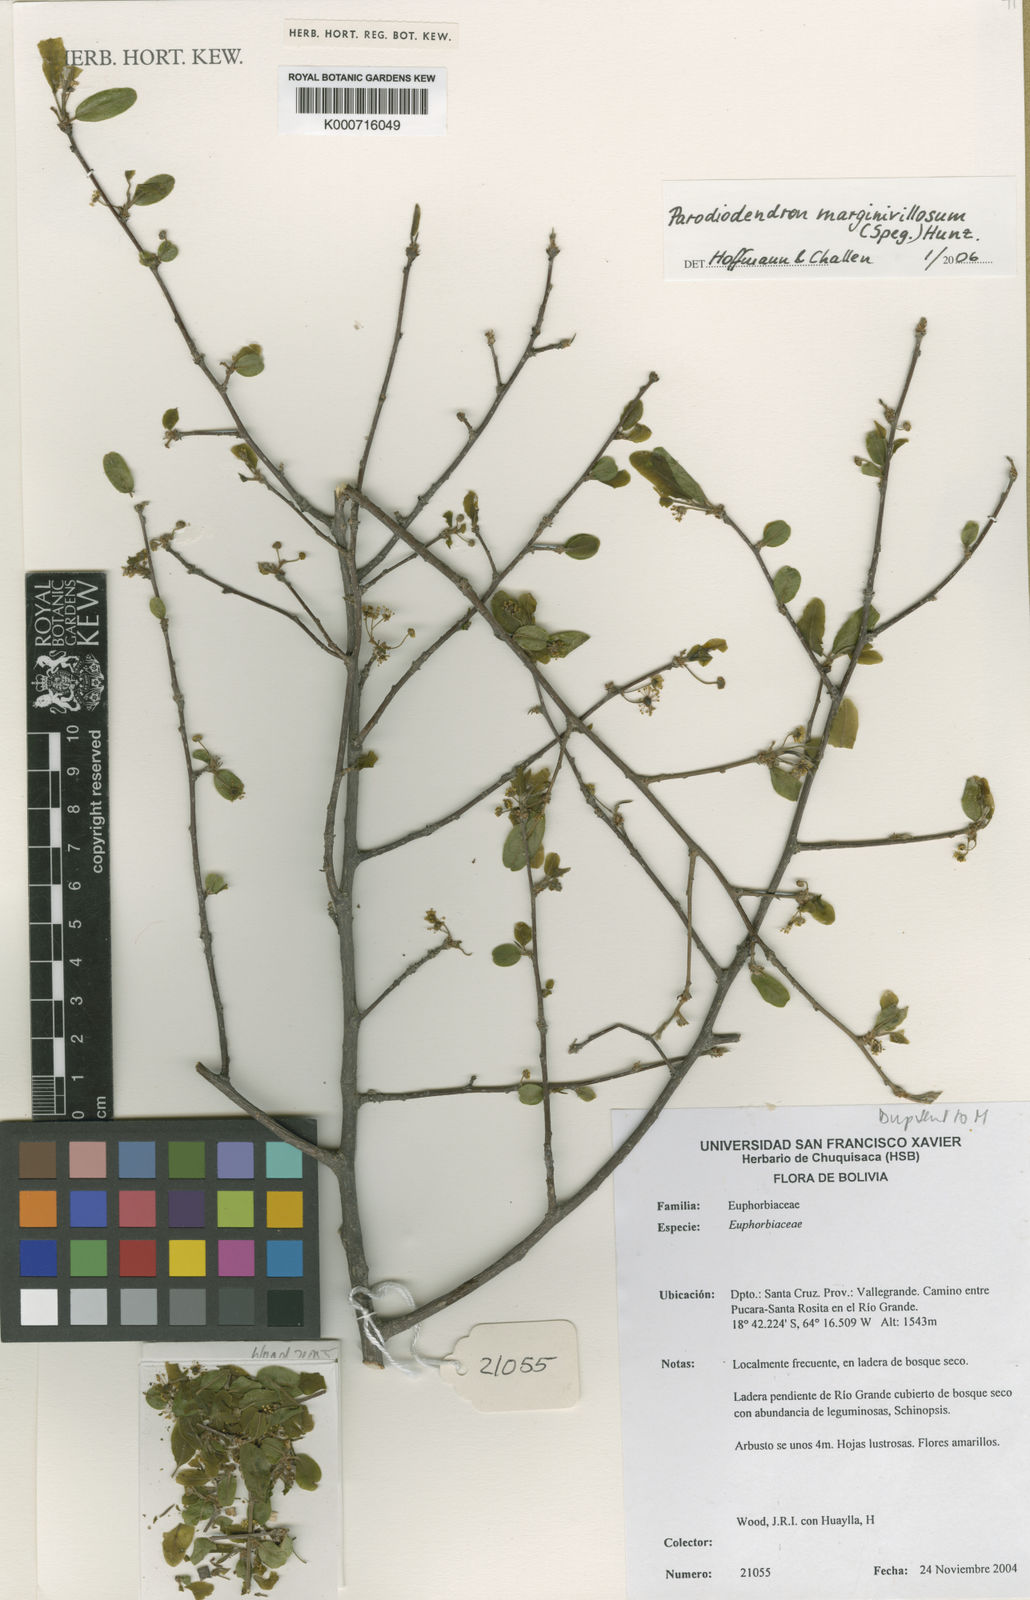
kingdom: Plantae
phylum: Tracheophyta
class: Magnoliopsida
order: Malpighiales
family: Picrodendraceae
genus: Parodiodendron
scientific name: Parodiodendron marginivillosum
